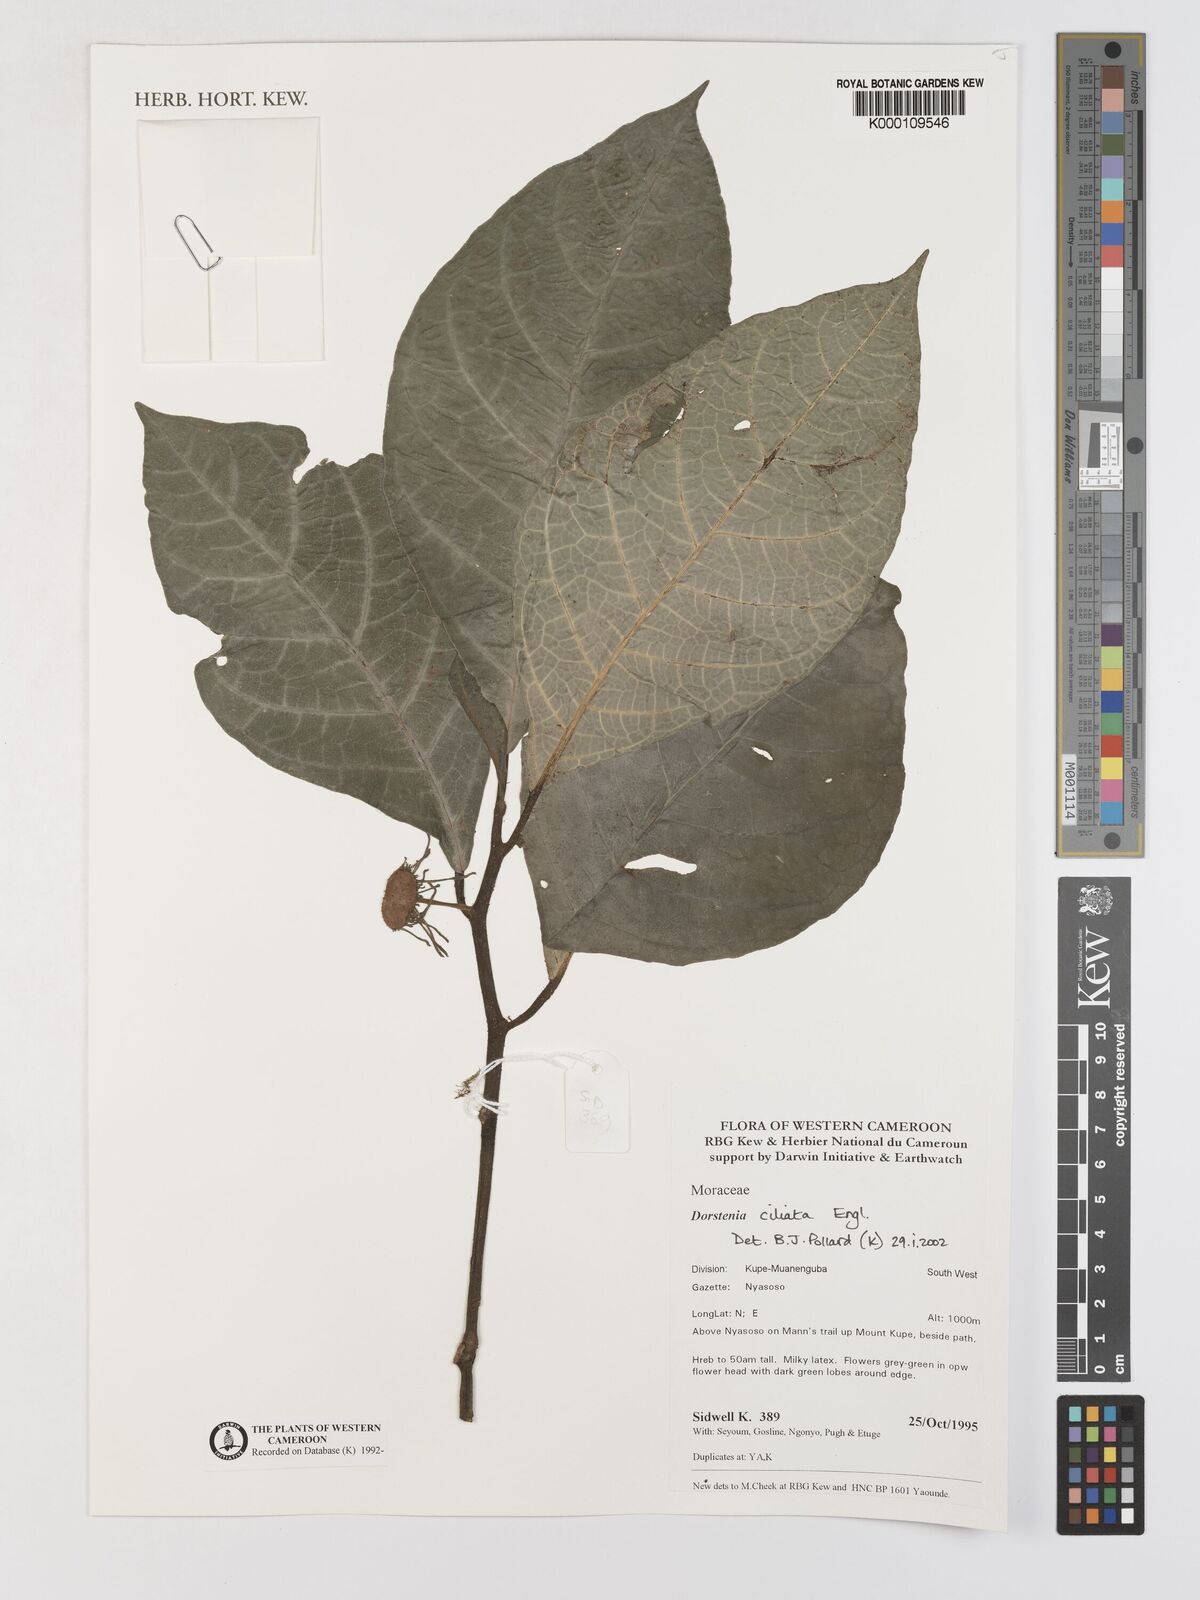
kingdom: Plantae
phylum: Tracheophyta
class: Magnoliopsida
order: Rosales
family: Moraceae
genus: Dorstenia
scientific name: Dorstenia ciliata
